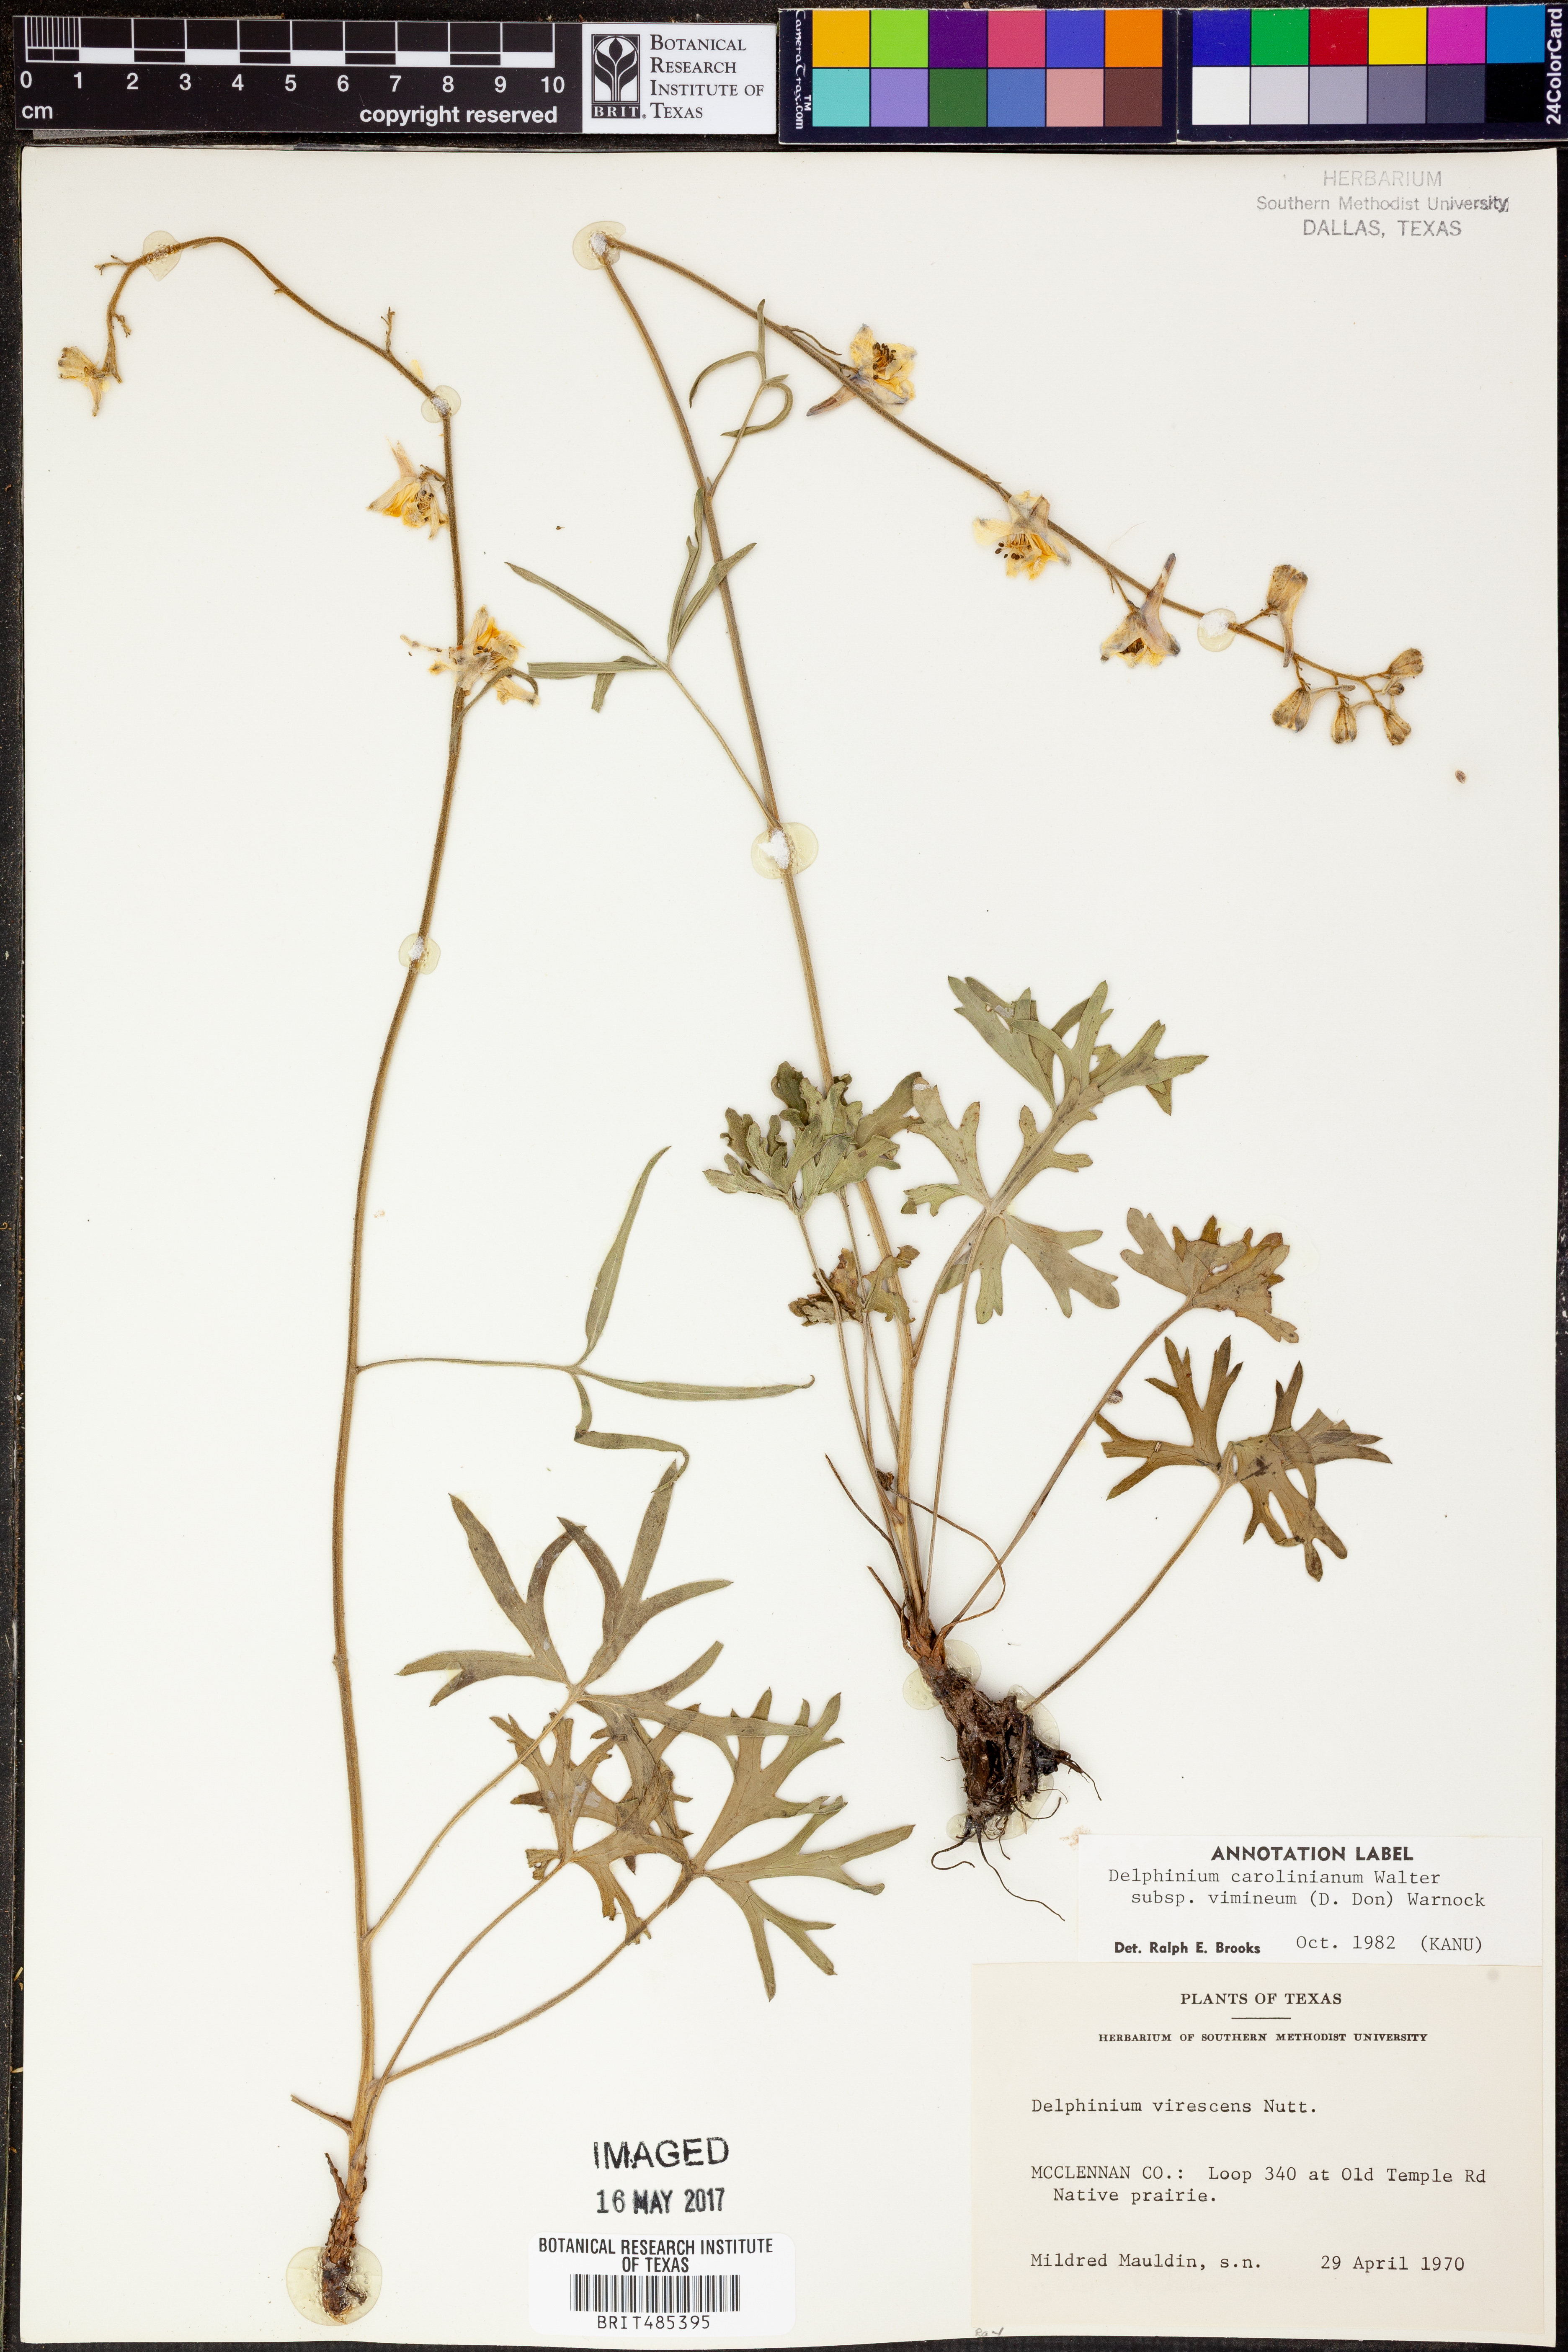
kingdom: Plantae
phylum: Tracheophyta
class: Magnoliopsida
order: Ranunculales
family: Ranunculaceae
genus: Delphinium
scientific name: Delphinium carolinianum
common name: Carolina larkspur
